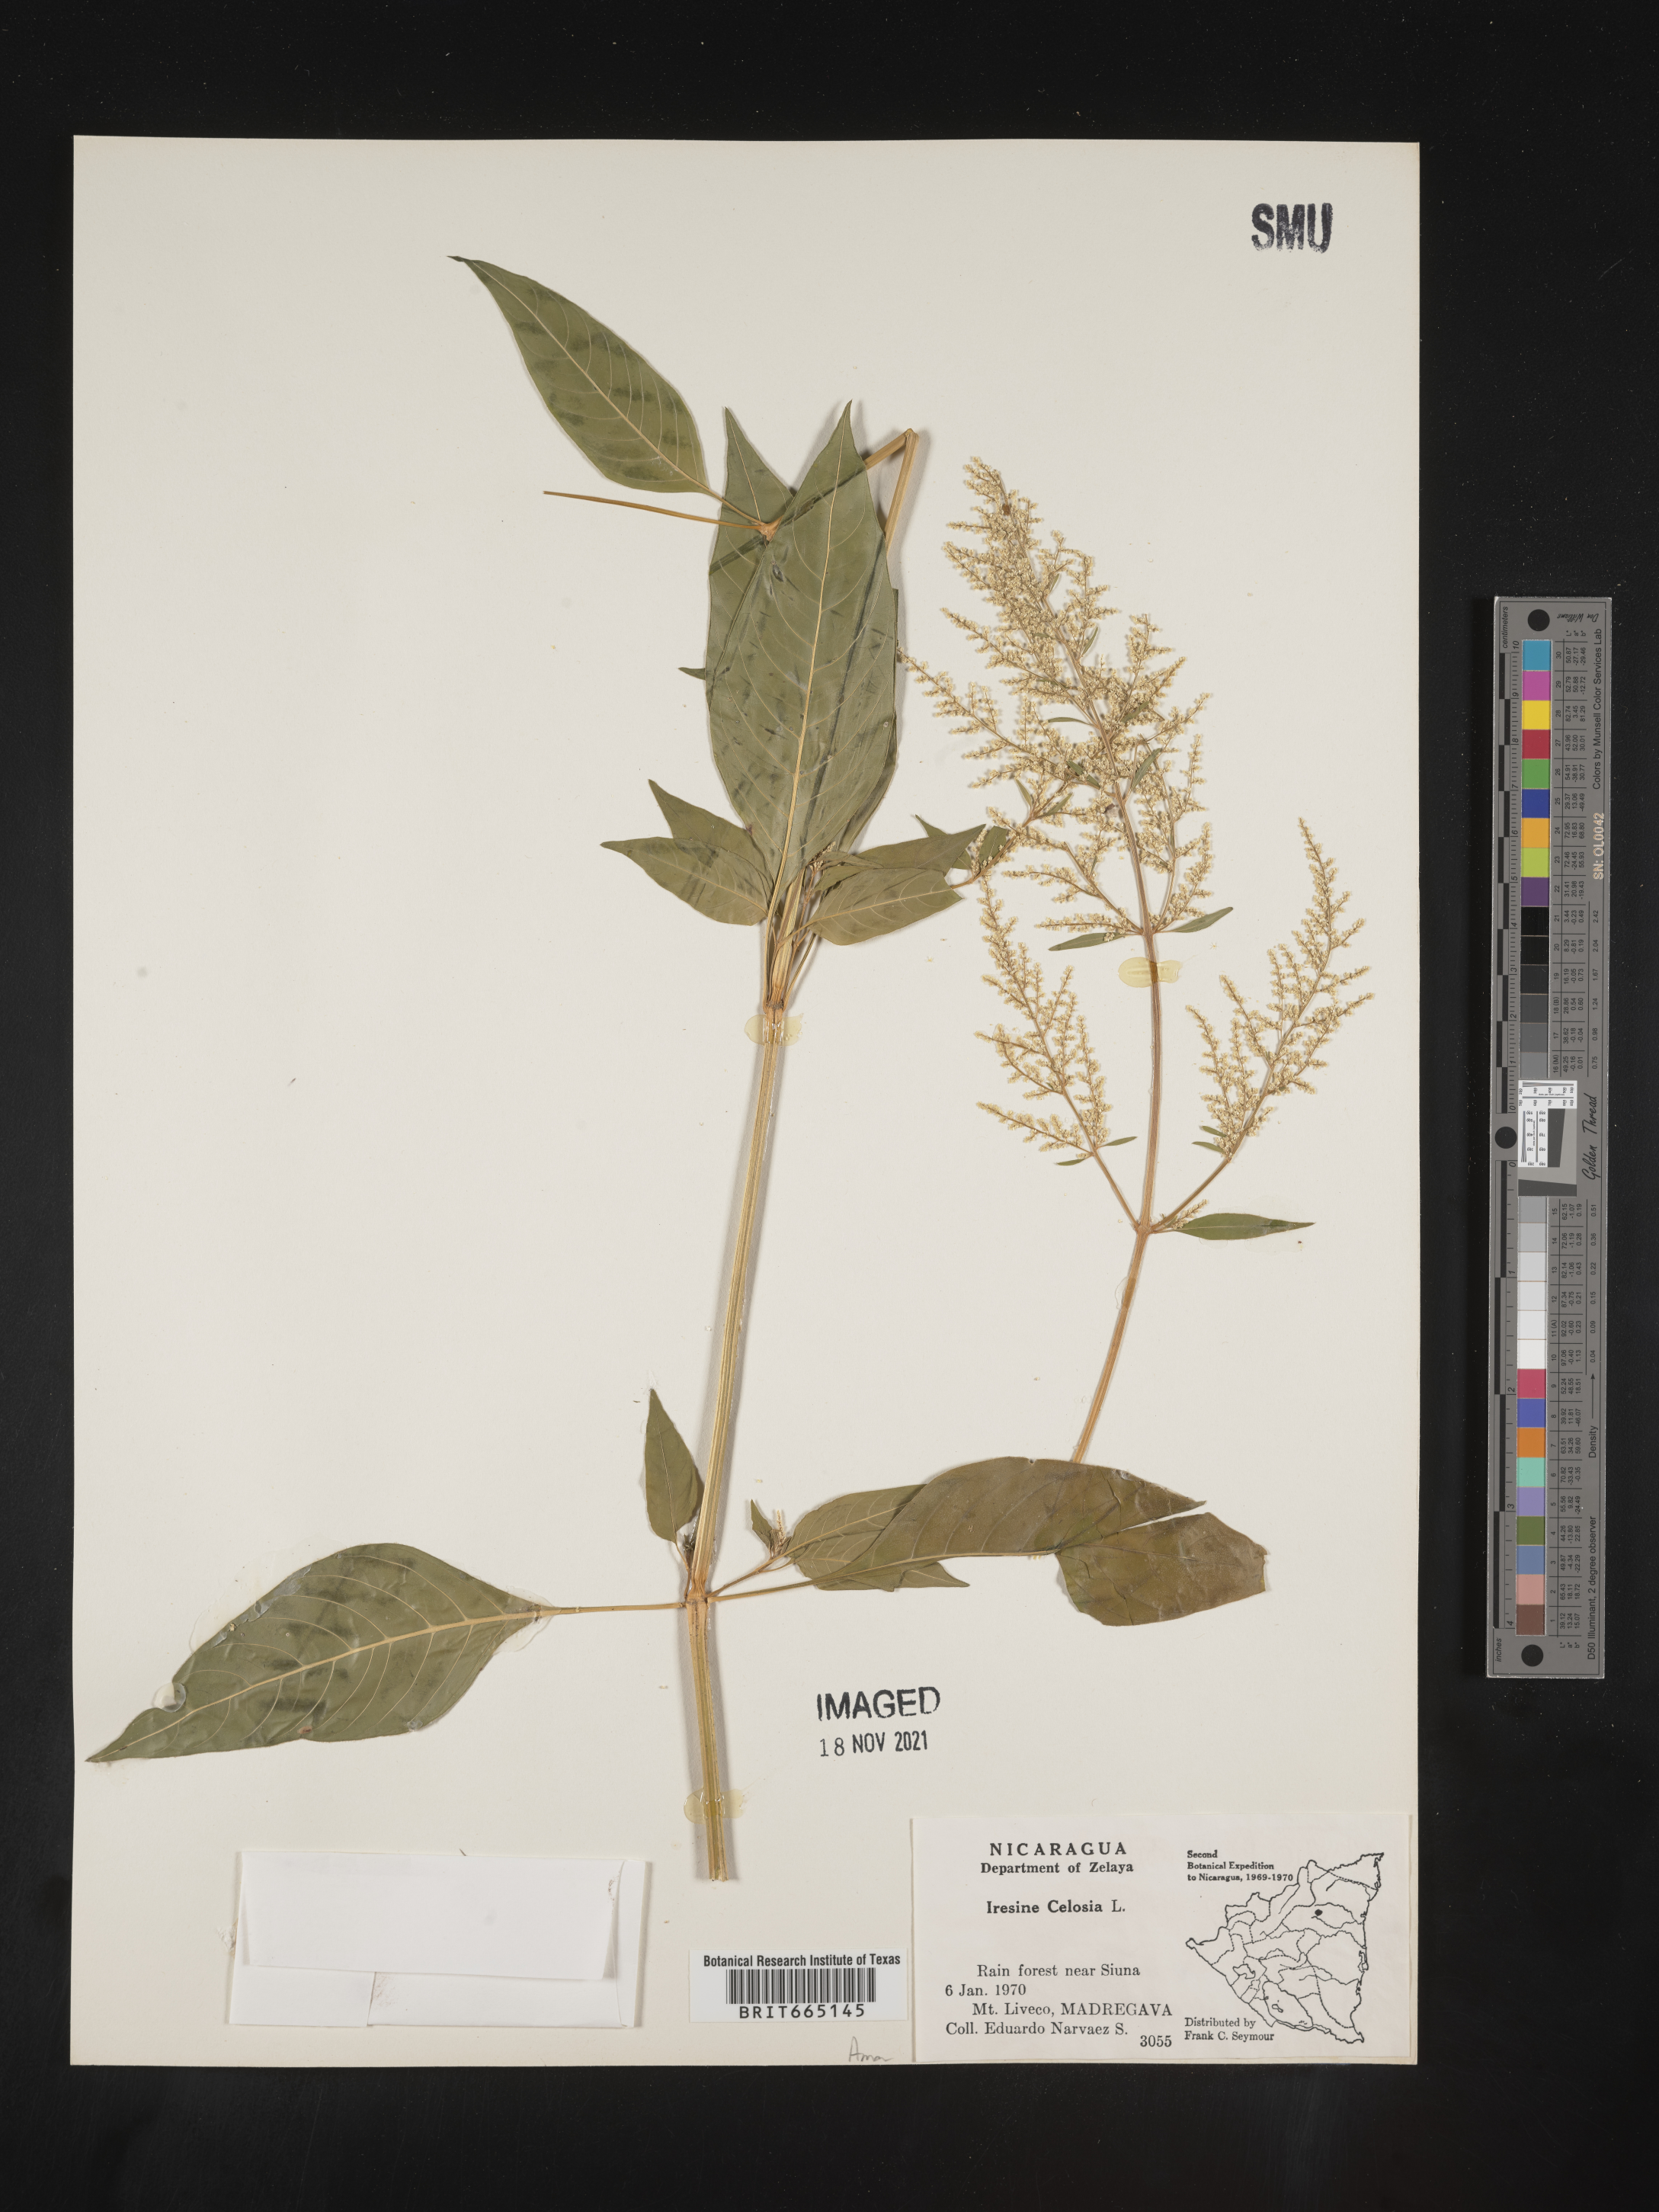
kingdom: Plantae
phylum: Tracheophyta
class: Magnoliopsida
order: Caryophyllales
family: Amaranthaceae
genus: Iresine
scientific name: Iresine
